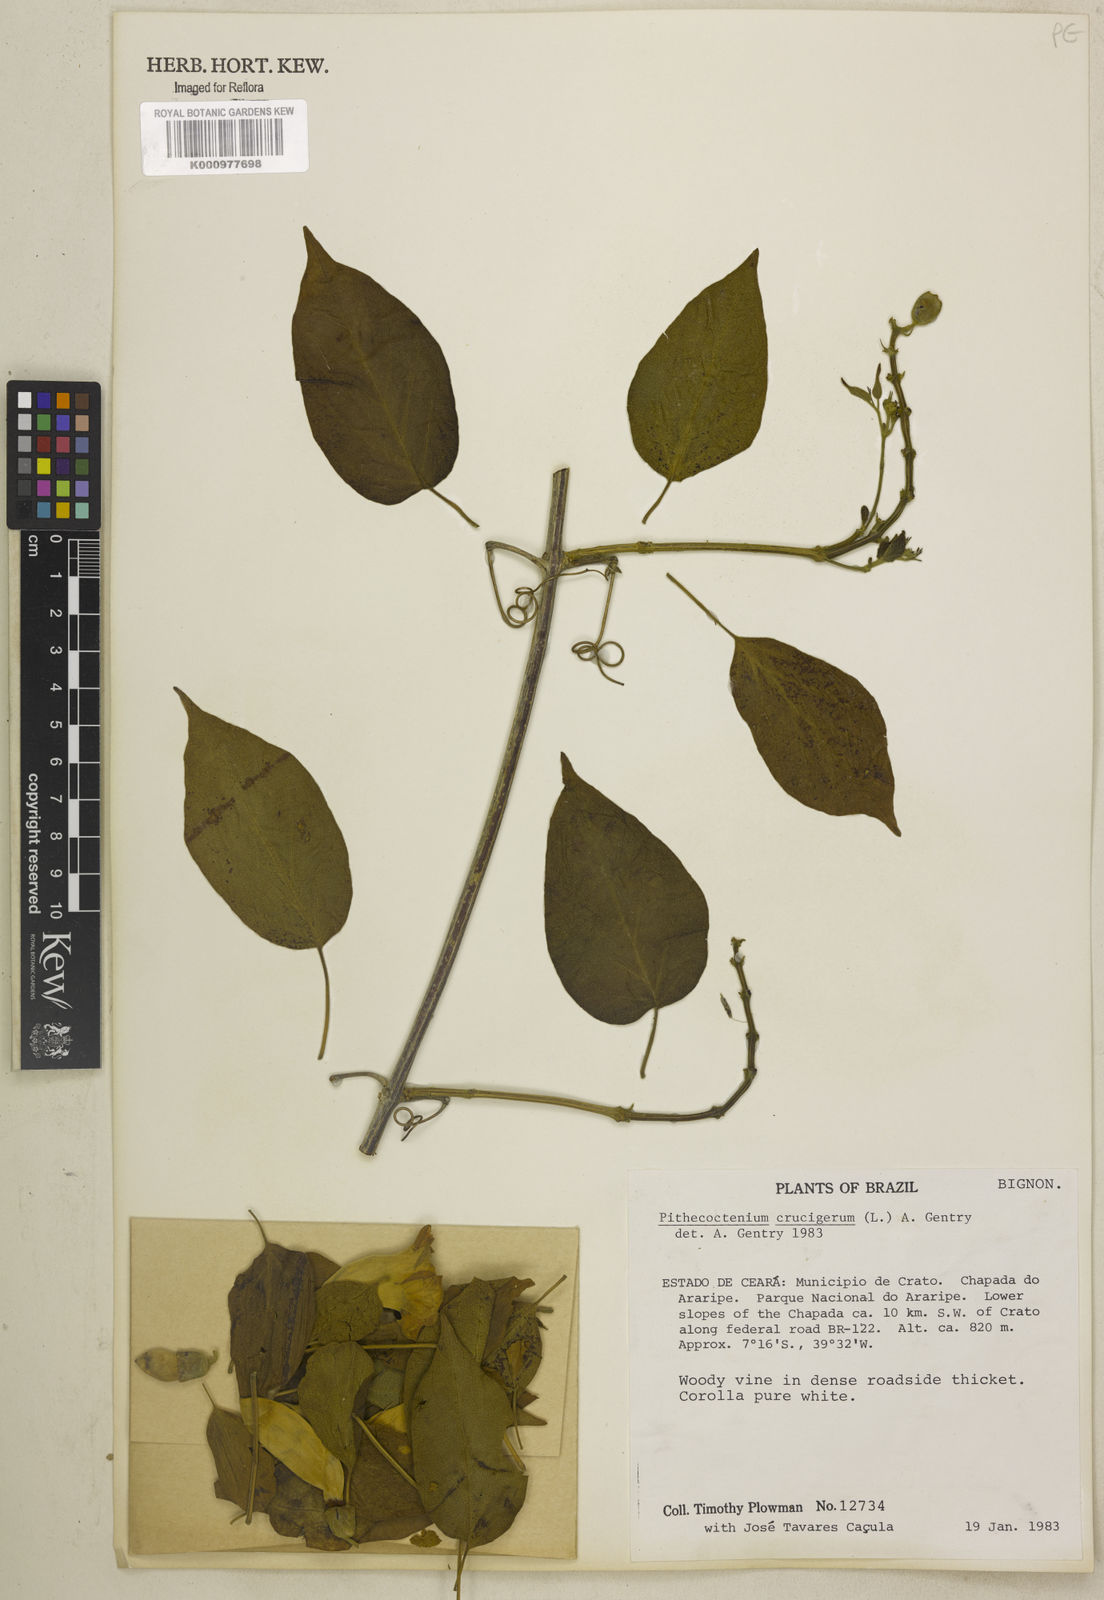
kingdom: Plantae
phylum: Tracheophyta
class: Magnoliopsida
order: Lamiales
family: Bignoniaceae
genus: Amphilophium
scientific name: Amphilophium crucigerum
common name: Monkey comb
